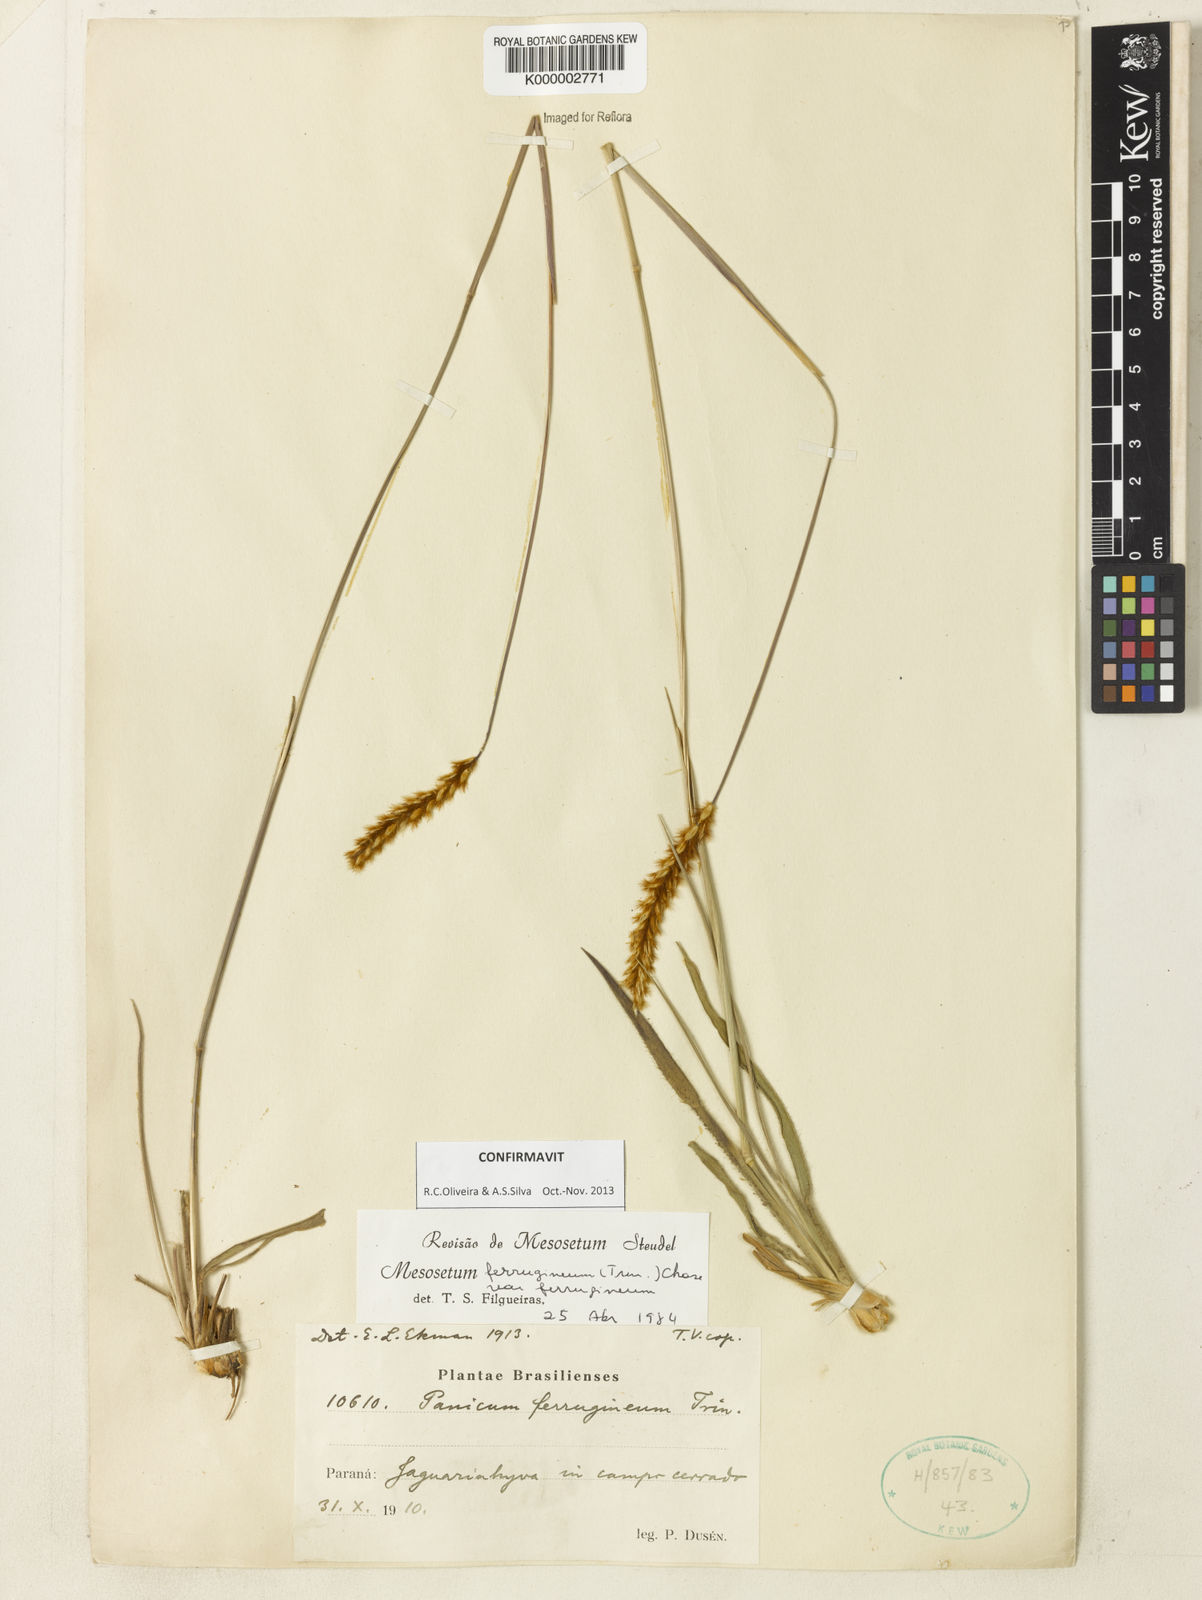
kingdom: Plantae
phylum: Tracheophyta
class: Liliopsida
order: Poales
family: Poaceae
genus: Mesosetum
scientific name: Mesosetum
